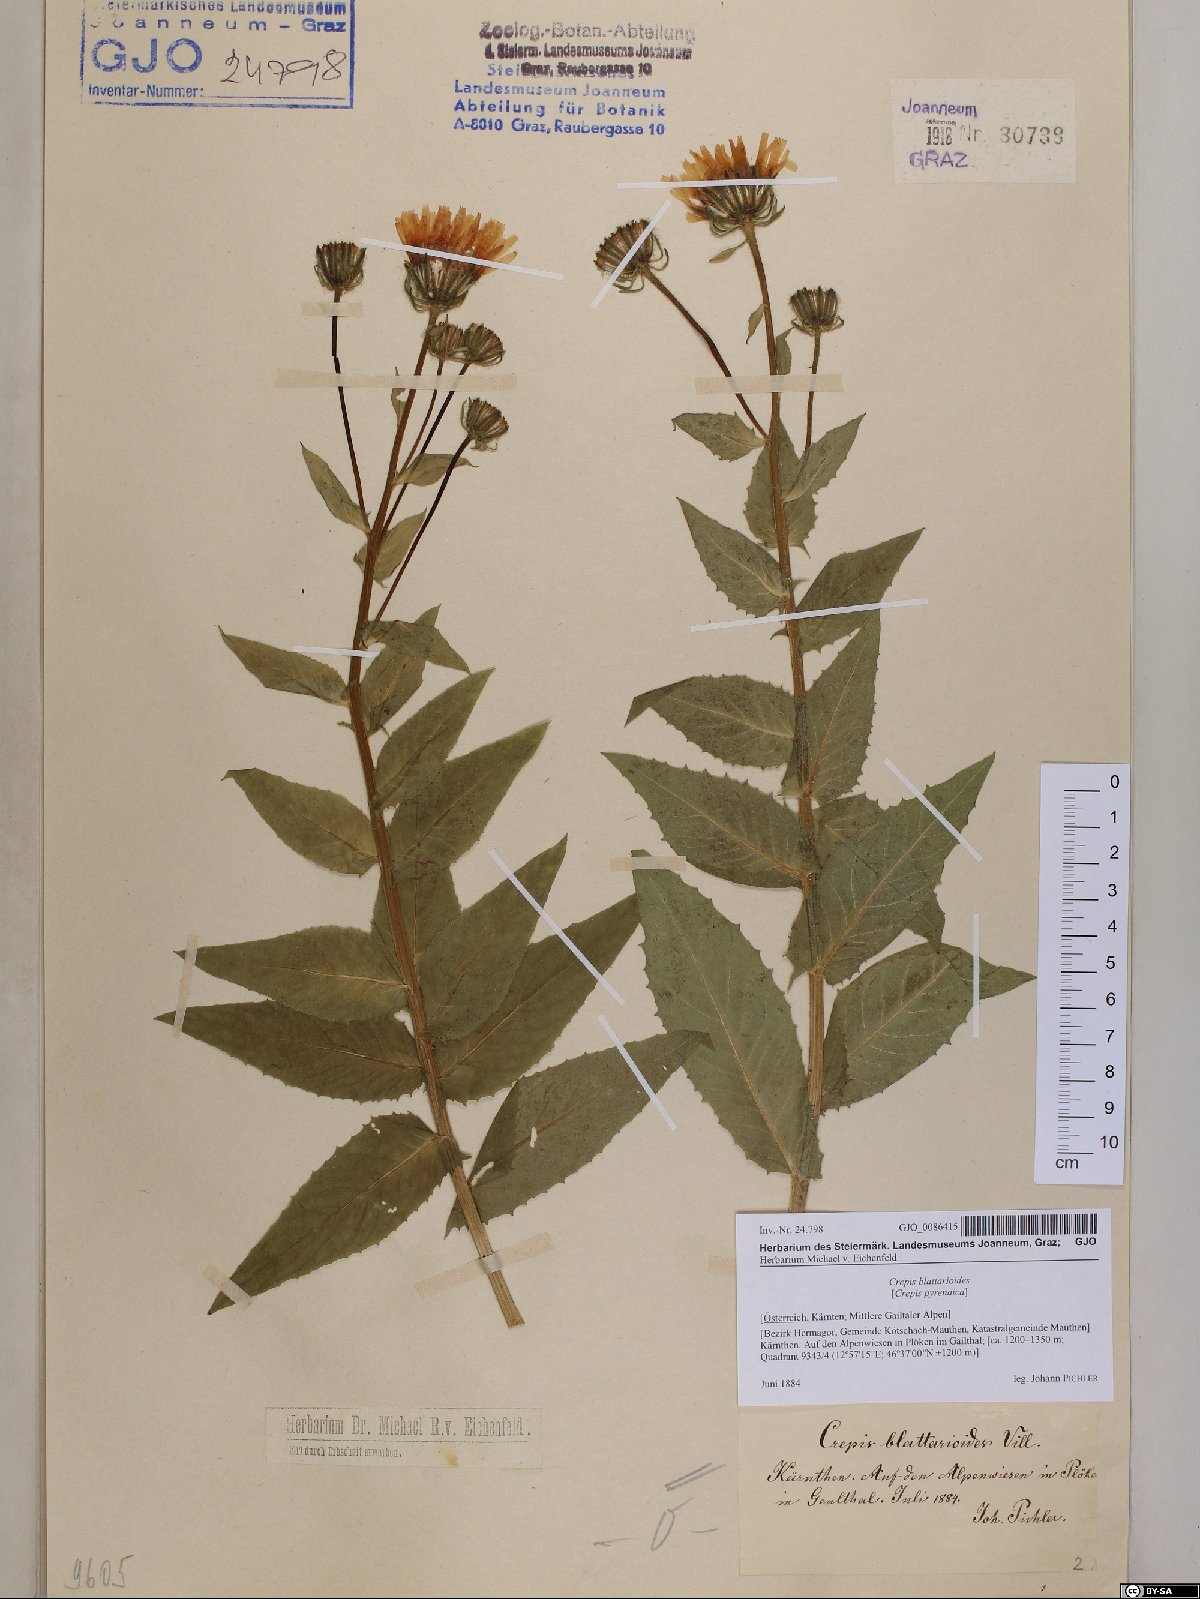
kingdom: Plantae
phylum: Tracheophyta
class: Magnoliopsida
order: Asterales
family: Asteraceae
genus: Crepis
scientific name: Crepis blattarioides
